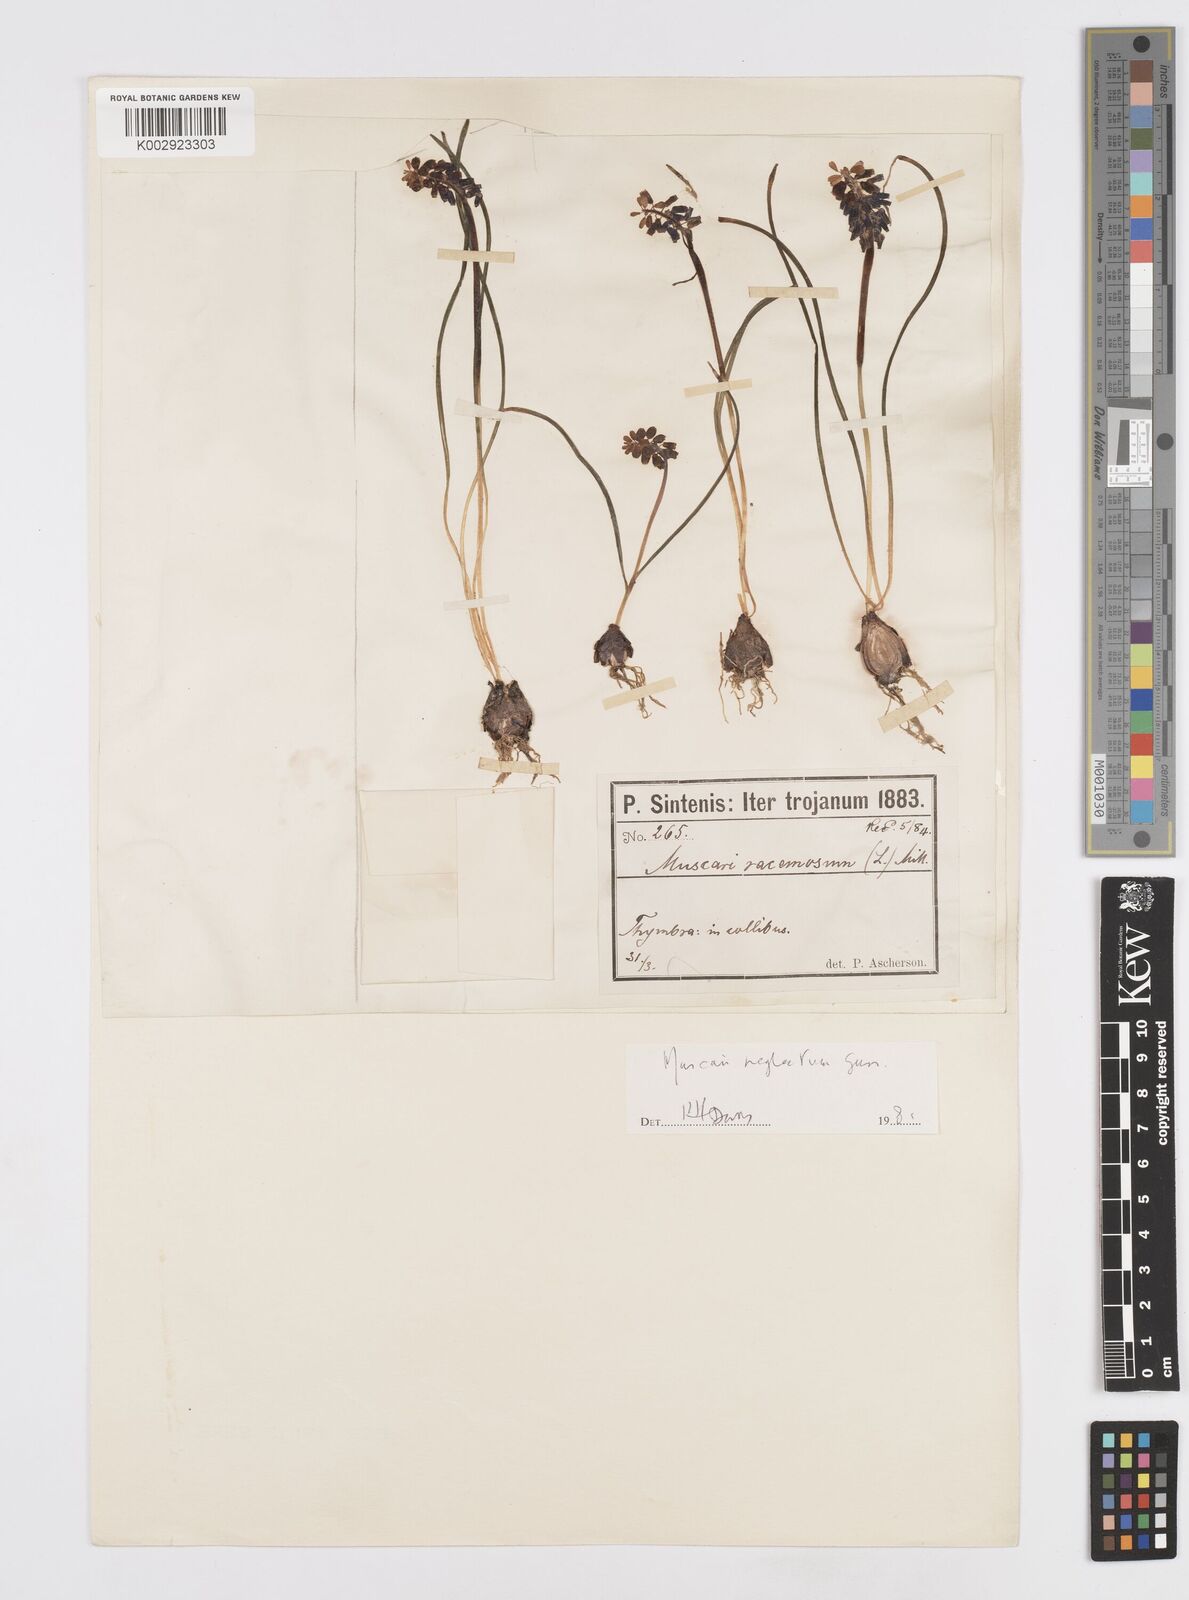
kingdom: Plantae
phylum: Tracheophyta
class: Liliopsida
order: Asparagales
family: Asparagaceae
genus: Muscari
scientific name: Muscari neglectum
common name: Grape-hyacinth
